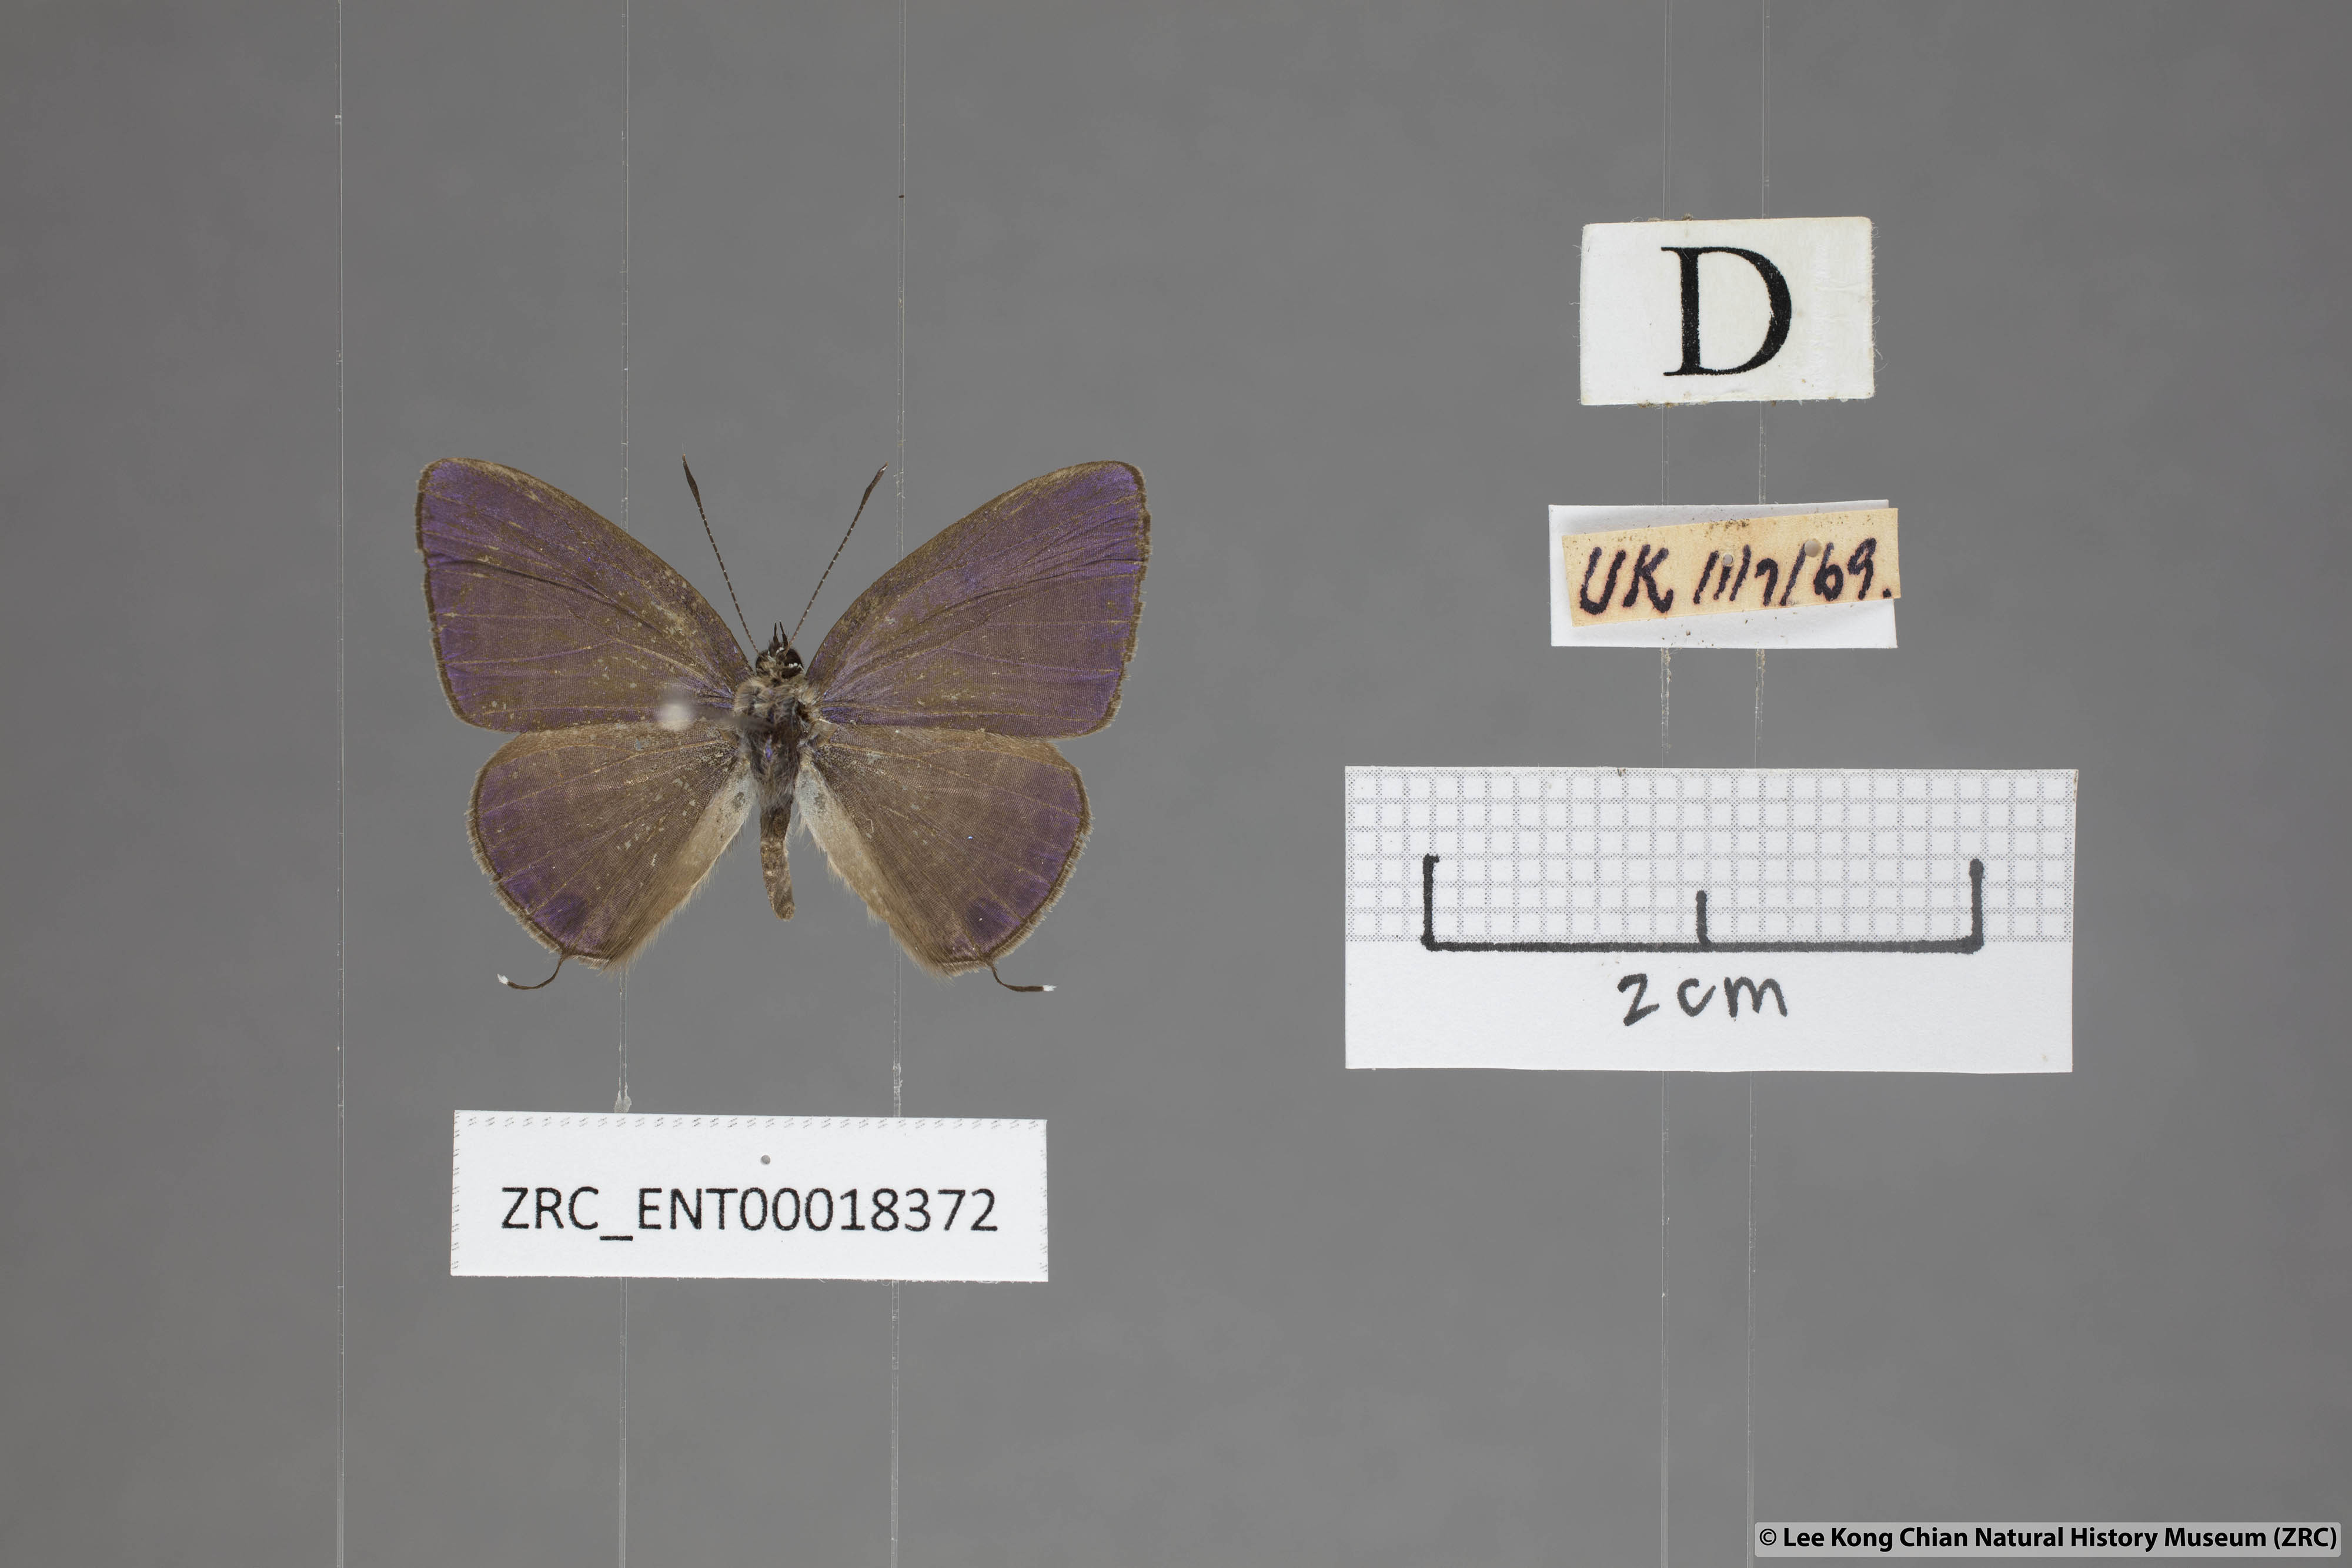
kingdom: Animalia
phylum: Arthropoda
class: Insecta
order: Lepidoptera
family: Lycaenidae
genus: Nacaduba
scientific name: Nacaduba kurava
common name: Transparent 6-line blue
